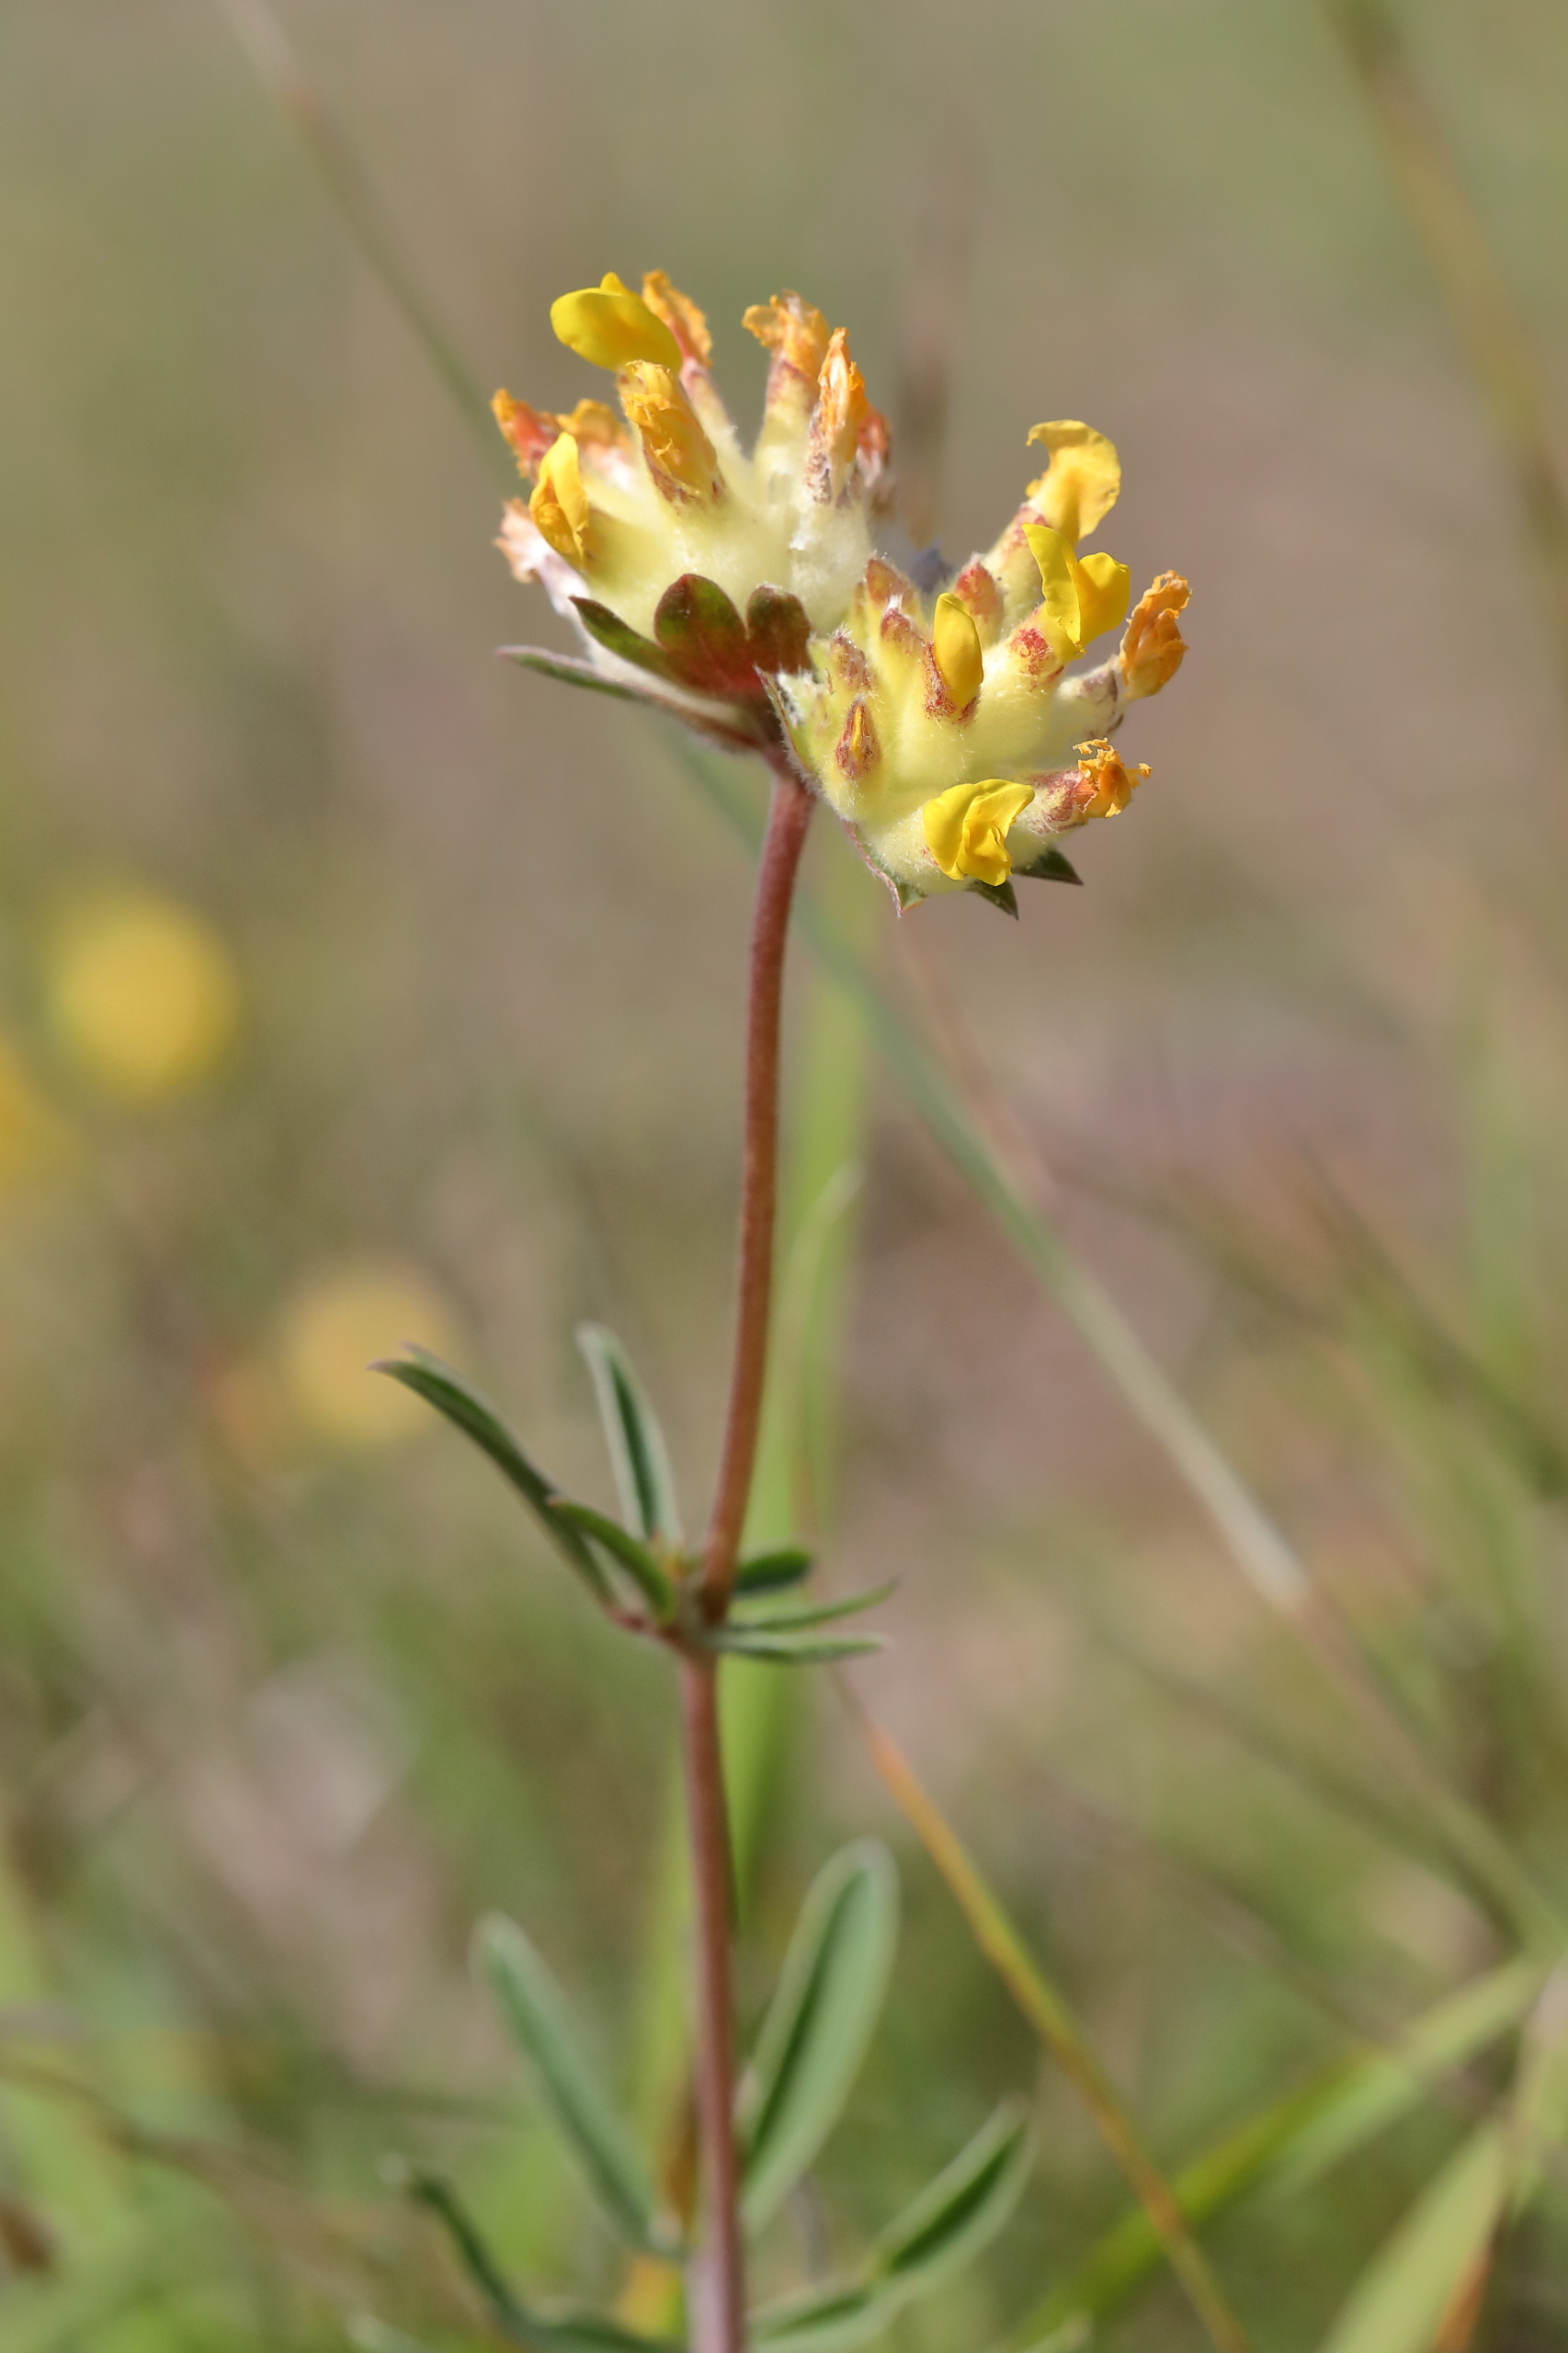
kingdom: Plantae
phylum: Tracheophyta
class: Magnoliopsida
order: Fabales
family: Fabaceae
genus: Anthyllis
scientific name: Anthyllis vulneraria
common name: Rundbælg
